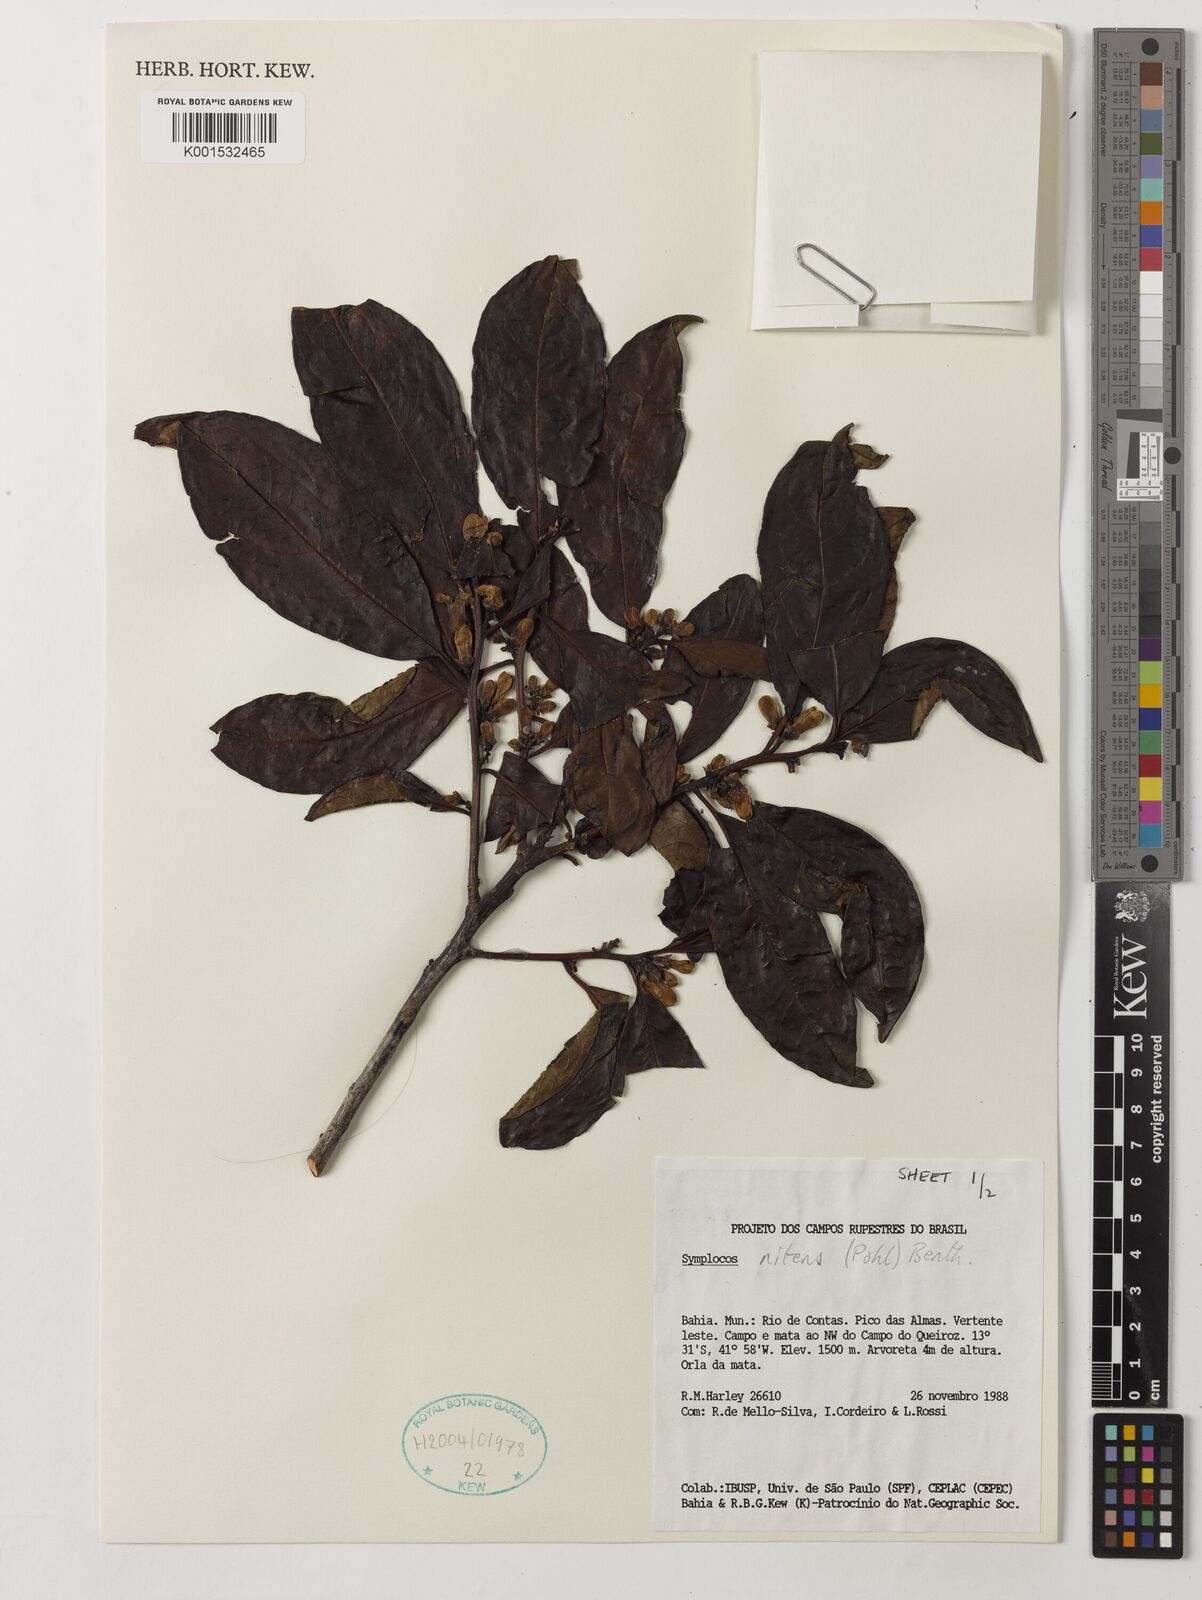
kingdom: Plantae
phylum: Tracheophyta
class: Magnoliopsida
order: Ericales
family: Symplocaceae
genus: Symplocos
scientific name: Symplocos nitens
